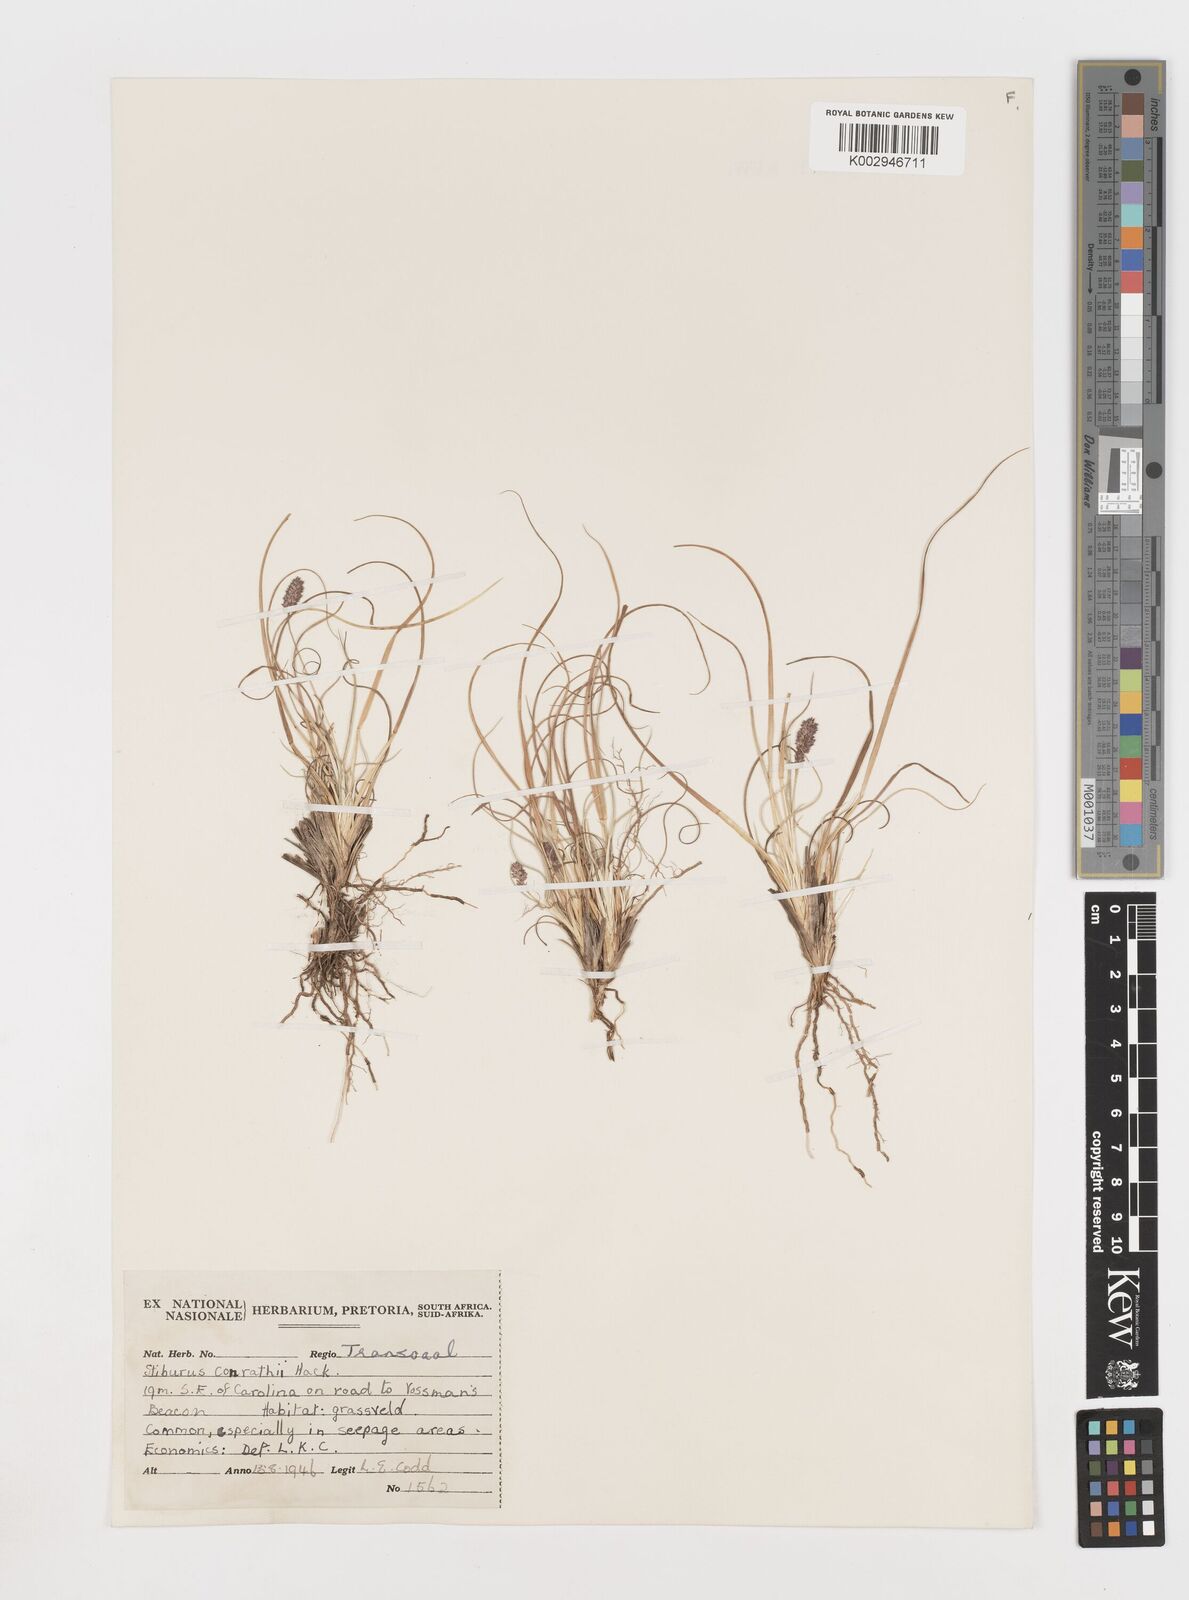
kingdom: Plantae
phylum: Tracheophyta
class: Liliopsida
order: Poales
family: Poaceae
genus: Stiburus
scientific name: Stiburus conrathii
